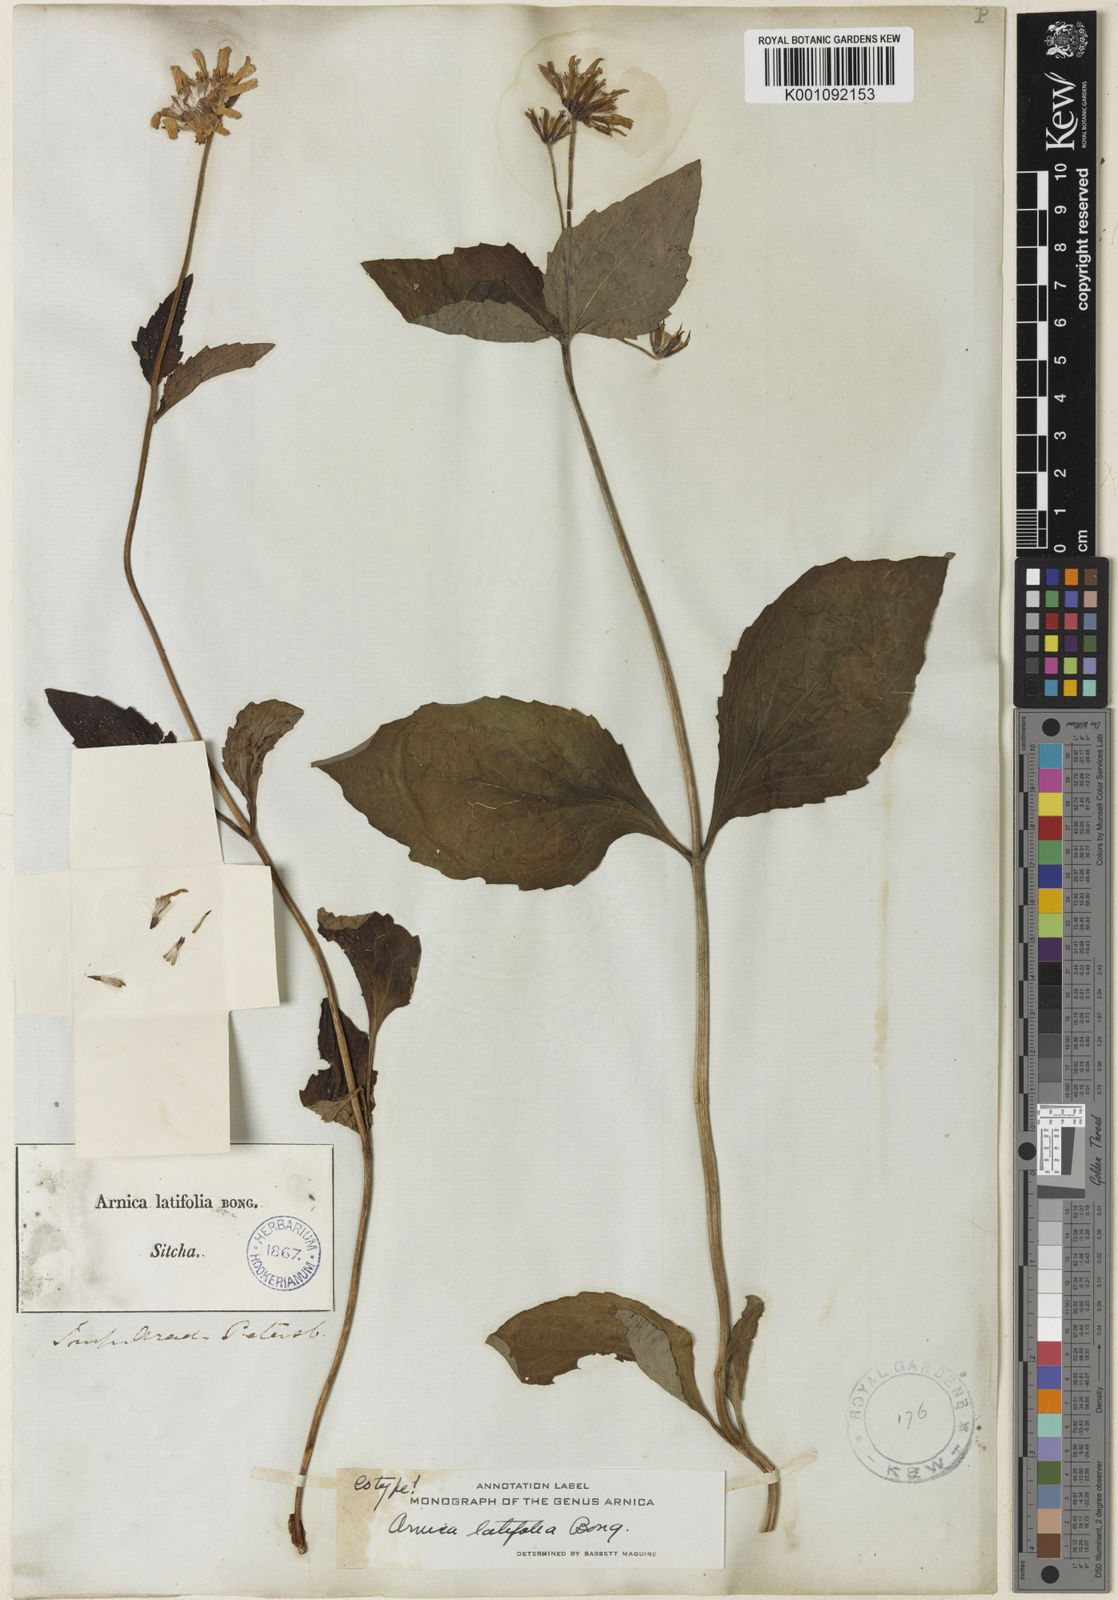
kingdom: Plantae
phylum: Tracheophyta
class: Magnoliopsida
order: Asterales
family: Asteraceae
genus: Arnica
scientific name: Arnica latifolia
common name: Arnica
